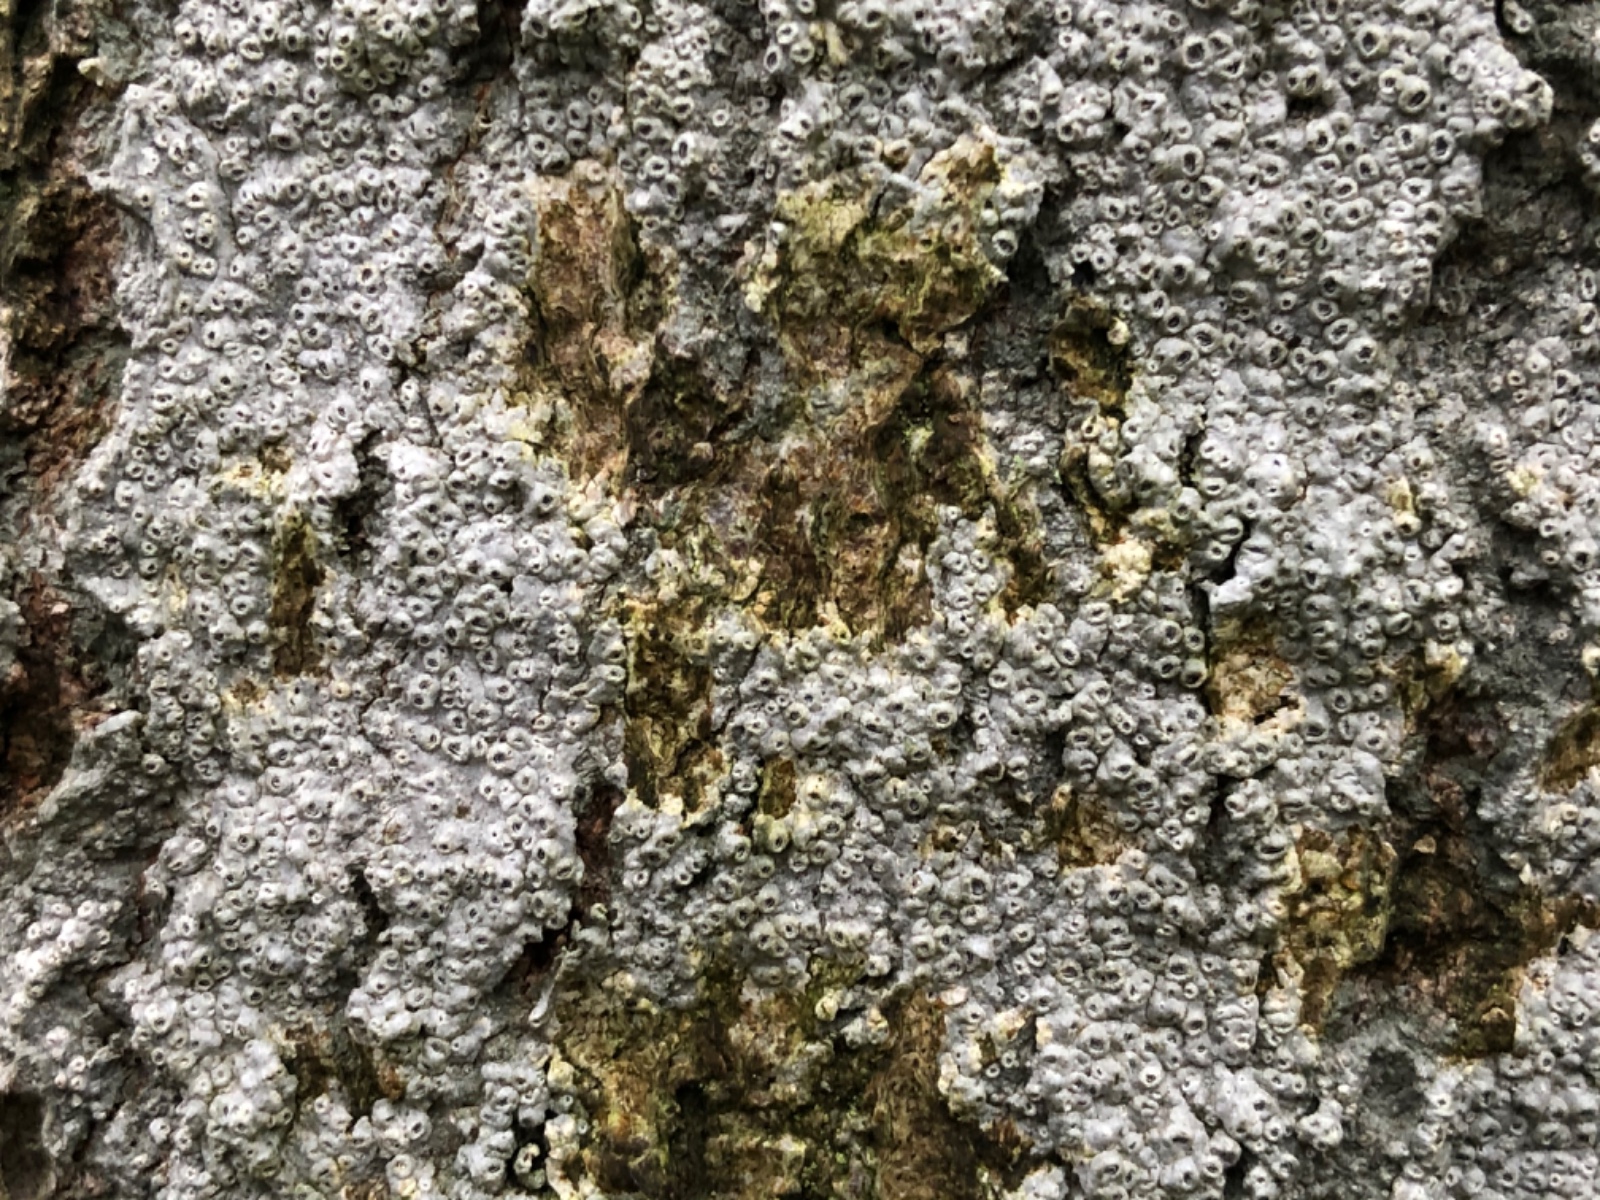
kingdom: Fungi
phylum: Ascomycota
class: Lecanoromycetes
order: Ostropales
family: Graphidaceae
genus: Thelotrema
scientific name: Thelotrema lepadinum
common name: almindelig slørkantlav
